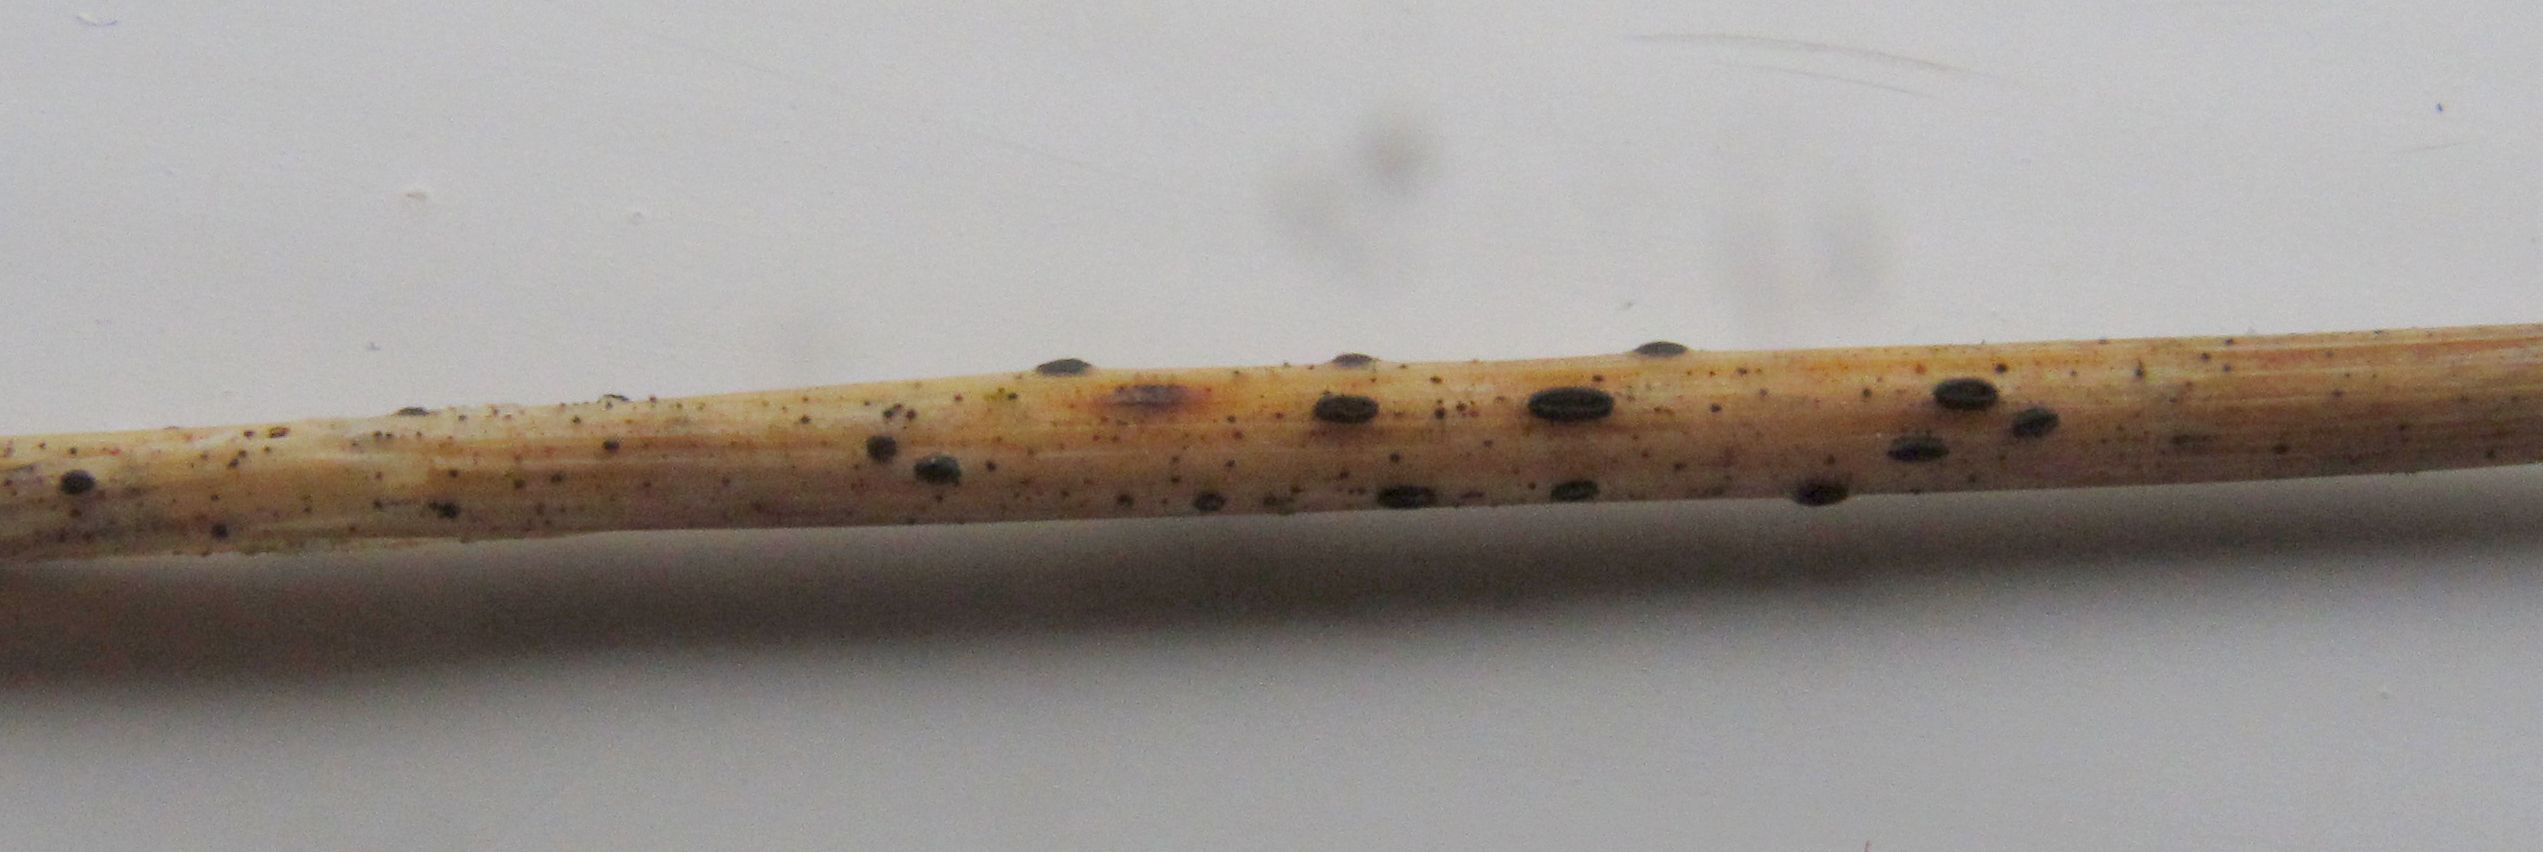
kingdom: Fungi
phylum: Ascomycota
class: Leotiomycetes
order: Rhytismatales
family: Rhytismataceae
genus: Lophodermium
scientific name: Lophodermium gramineum
